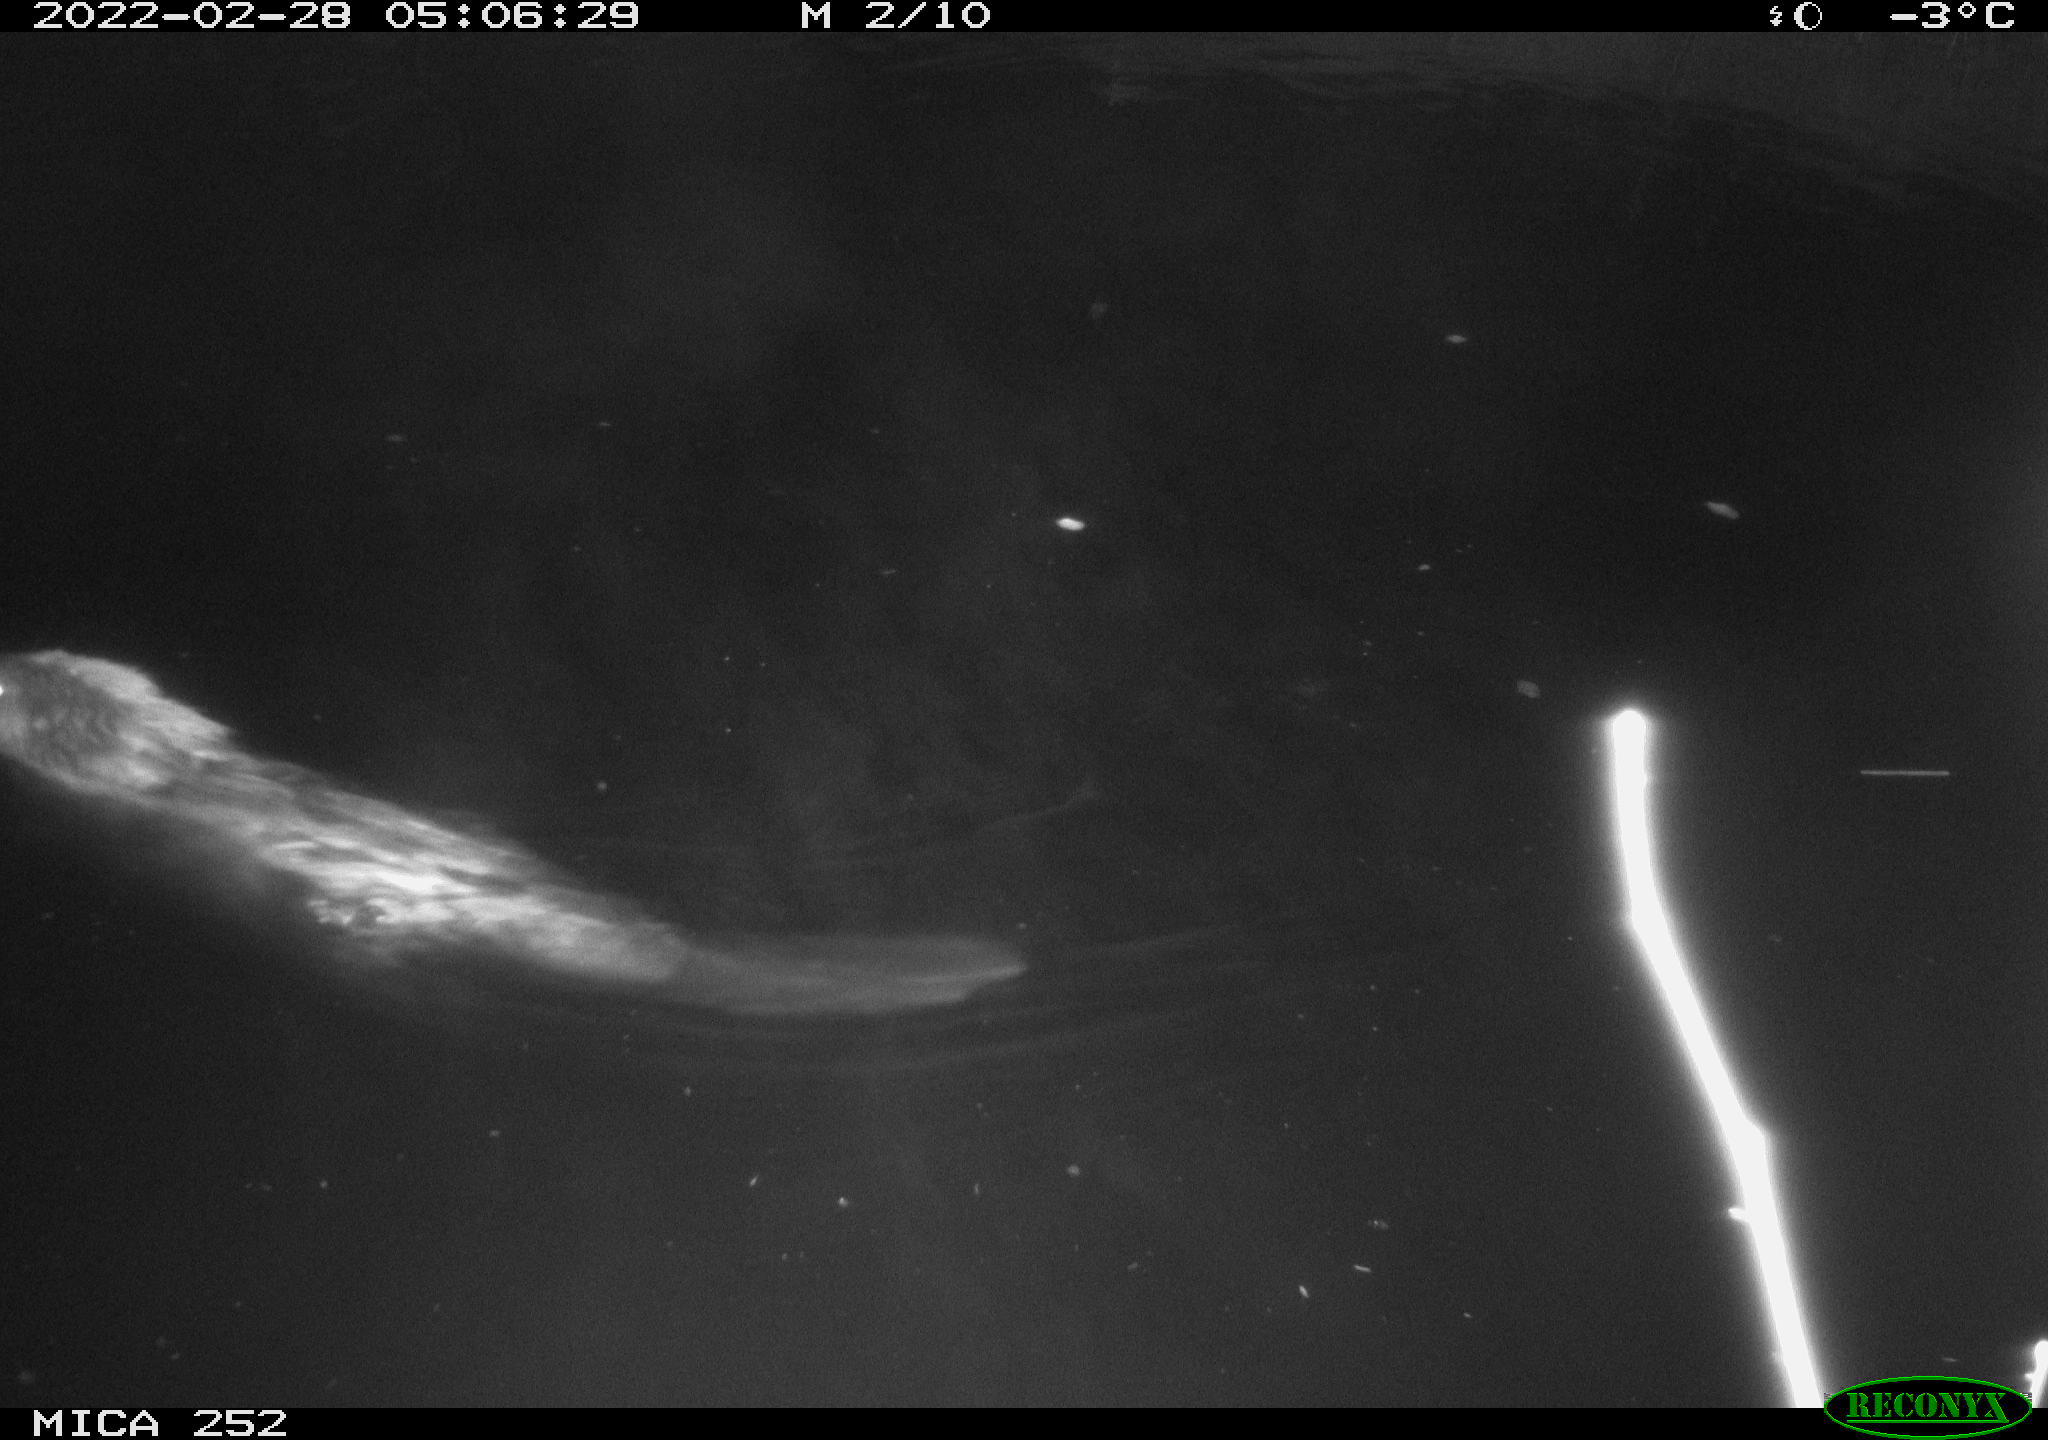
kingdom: Animalia
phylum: Chordata
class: Mammalia
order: Rodentia
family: Castoridae
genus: Castor
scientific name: Castor fiber
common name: Eurasian beaver
